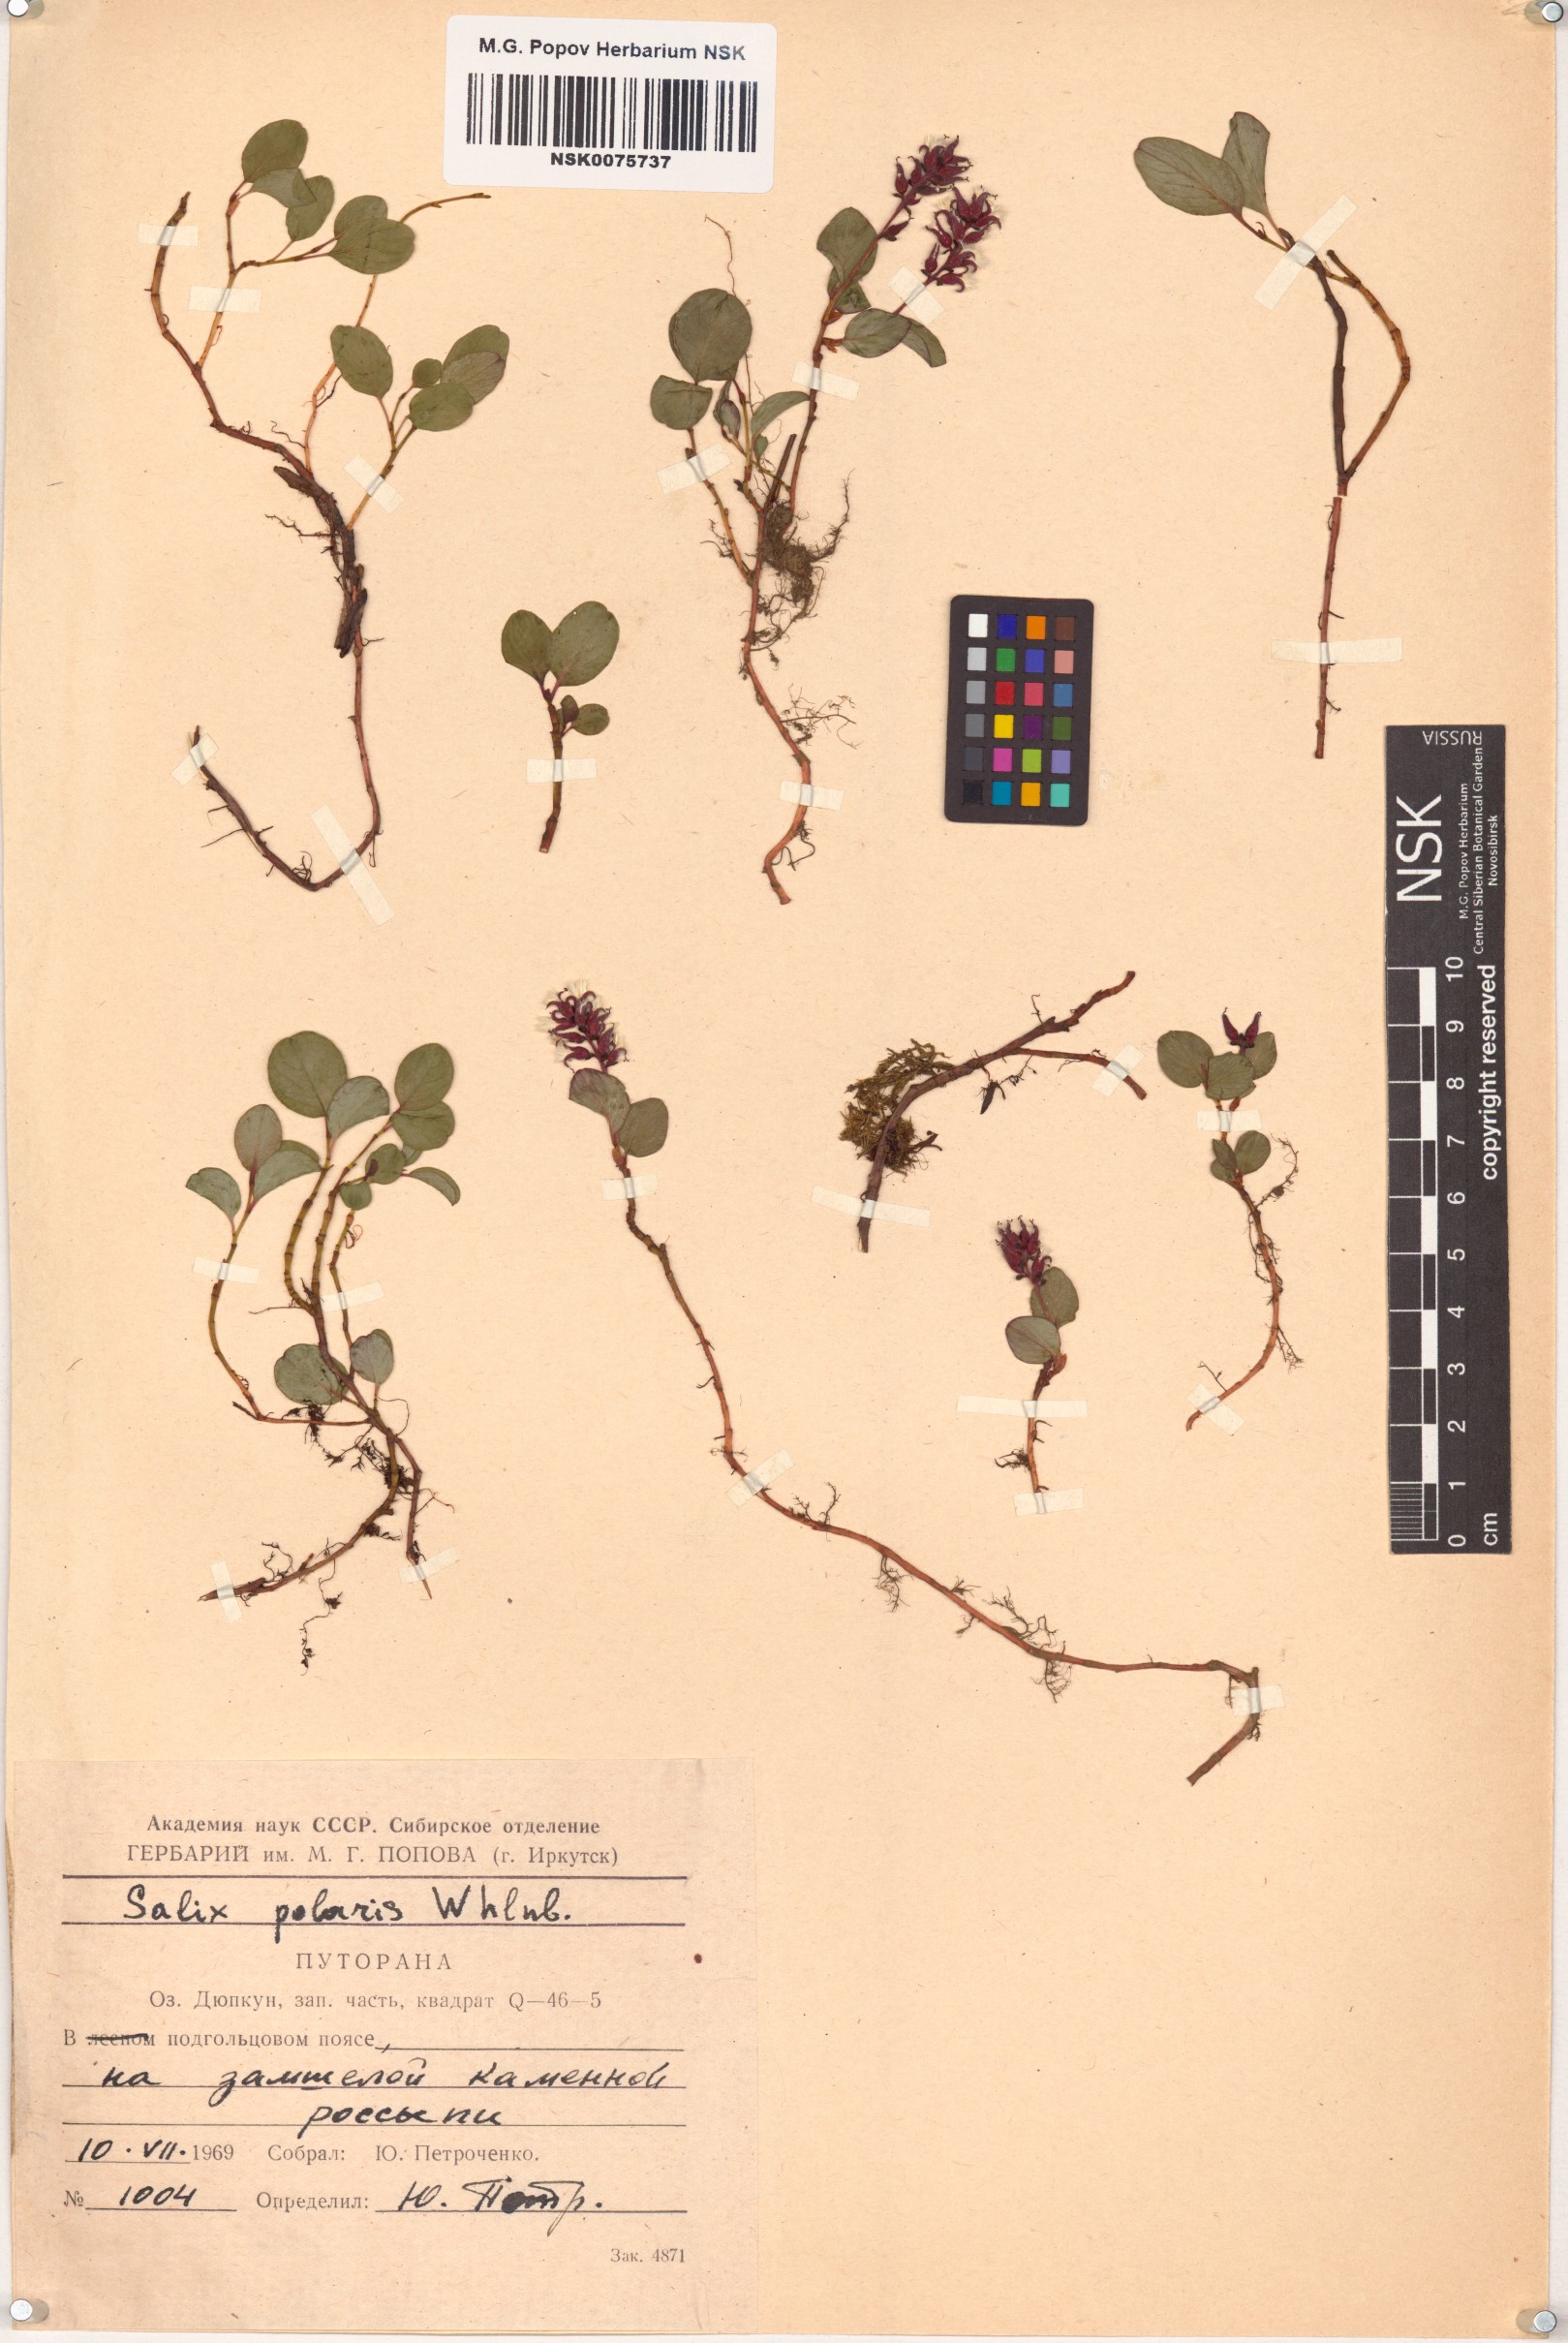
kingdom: Plantae
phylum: Tracheophyta
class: Magnoliopsida
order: Malpighiales
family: Salicaceae
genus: Salix
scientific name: Salix polaris
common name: Polar willow
